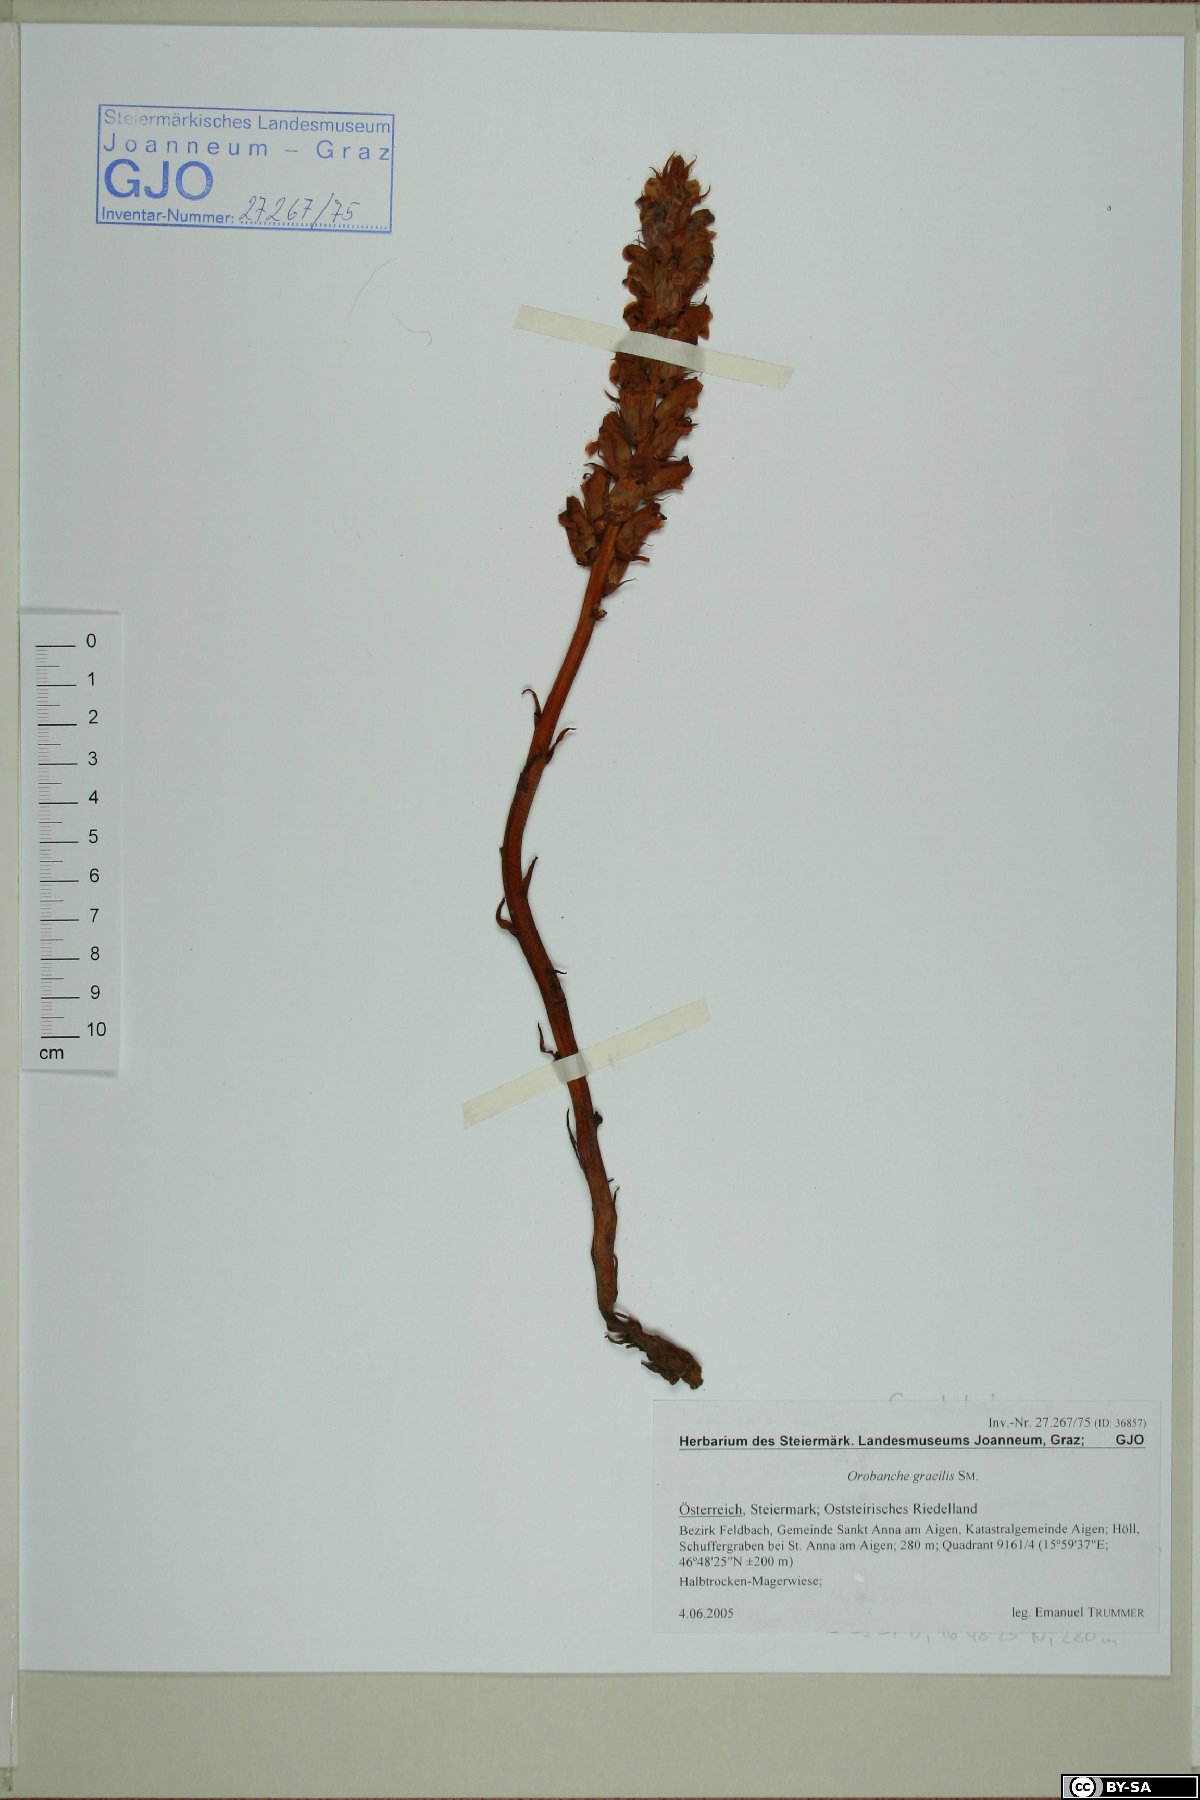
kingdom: Plantae
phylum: Tracheophyta
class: Magnoliopsida
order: Lamiales
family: Orobanchaceae
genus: Orobanche
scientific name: Orobanche gracilis
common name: Slender broomrape
